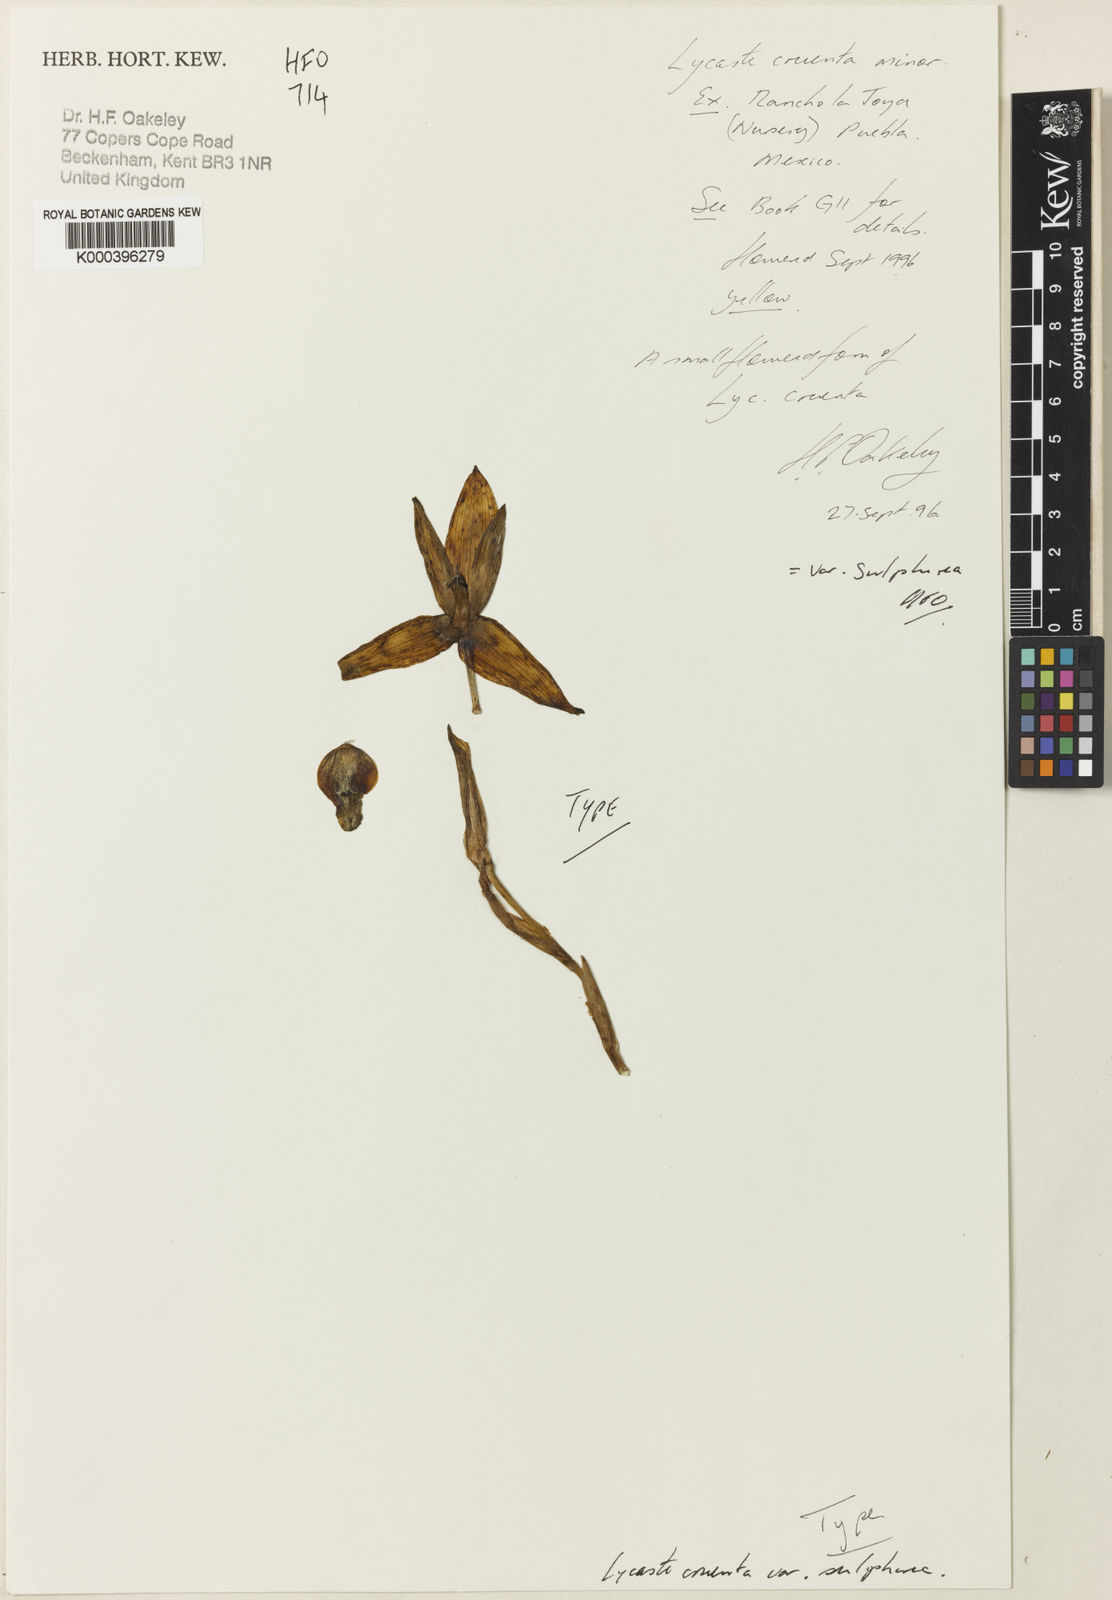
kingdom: Plantae
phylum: Tracheophyta
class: Liliopsida
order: Asparagales
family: Orchidaceae
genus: Lycaste
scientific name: Lycaste cruenta
